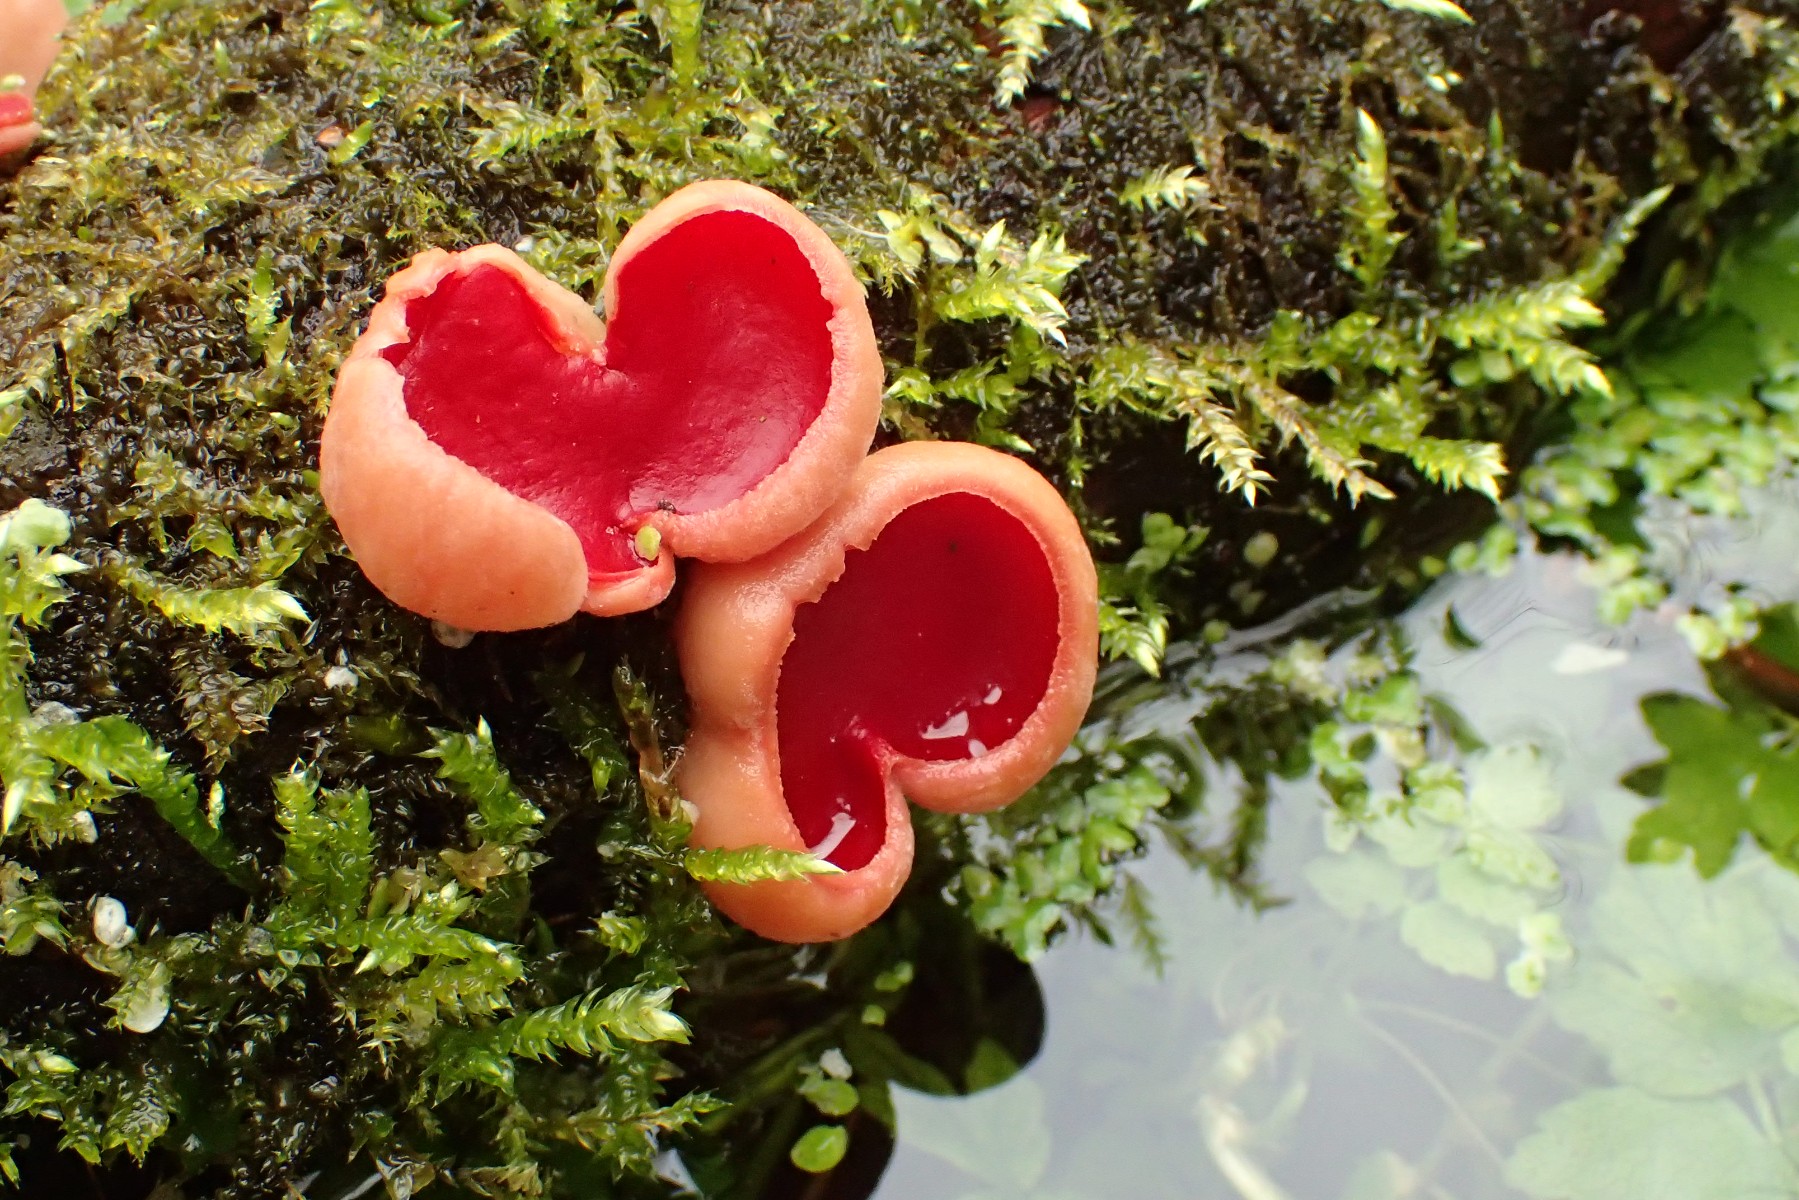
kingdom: Fungi
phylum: Ascomycota
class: Pezizomycetes
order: Pezizales
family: Sarcoscyphaceae
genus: Sarcoscypha
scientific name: Sarcoscypha austriaca
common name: krølhåret pragtbæger
